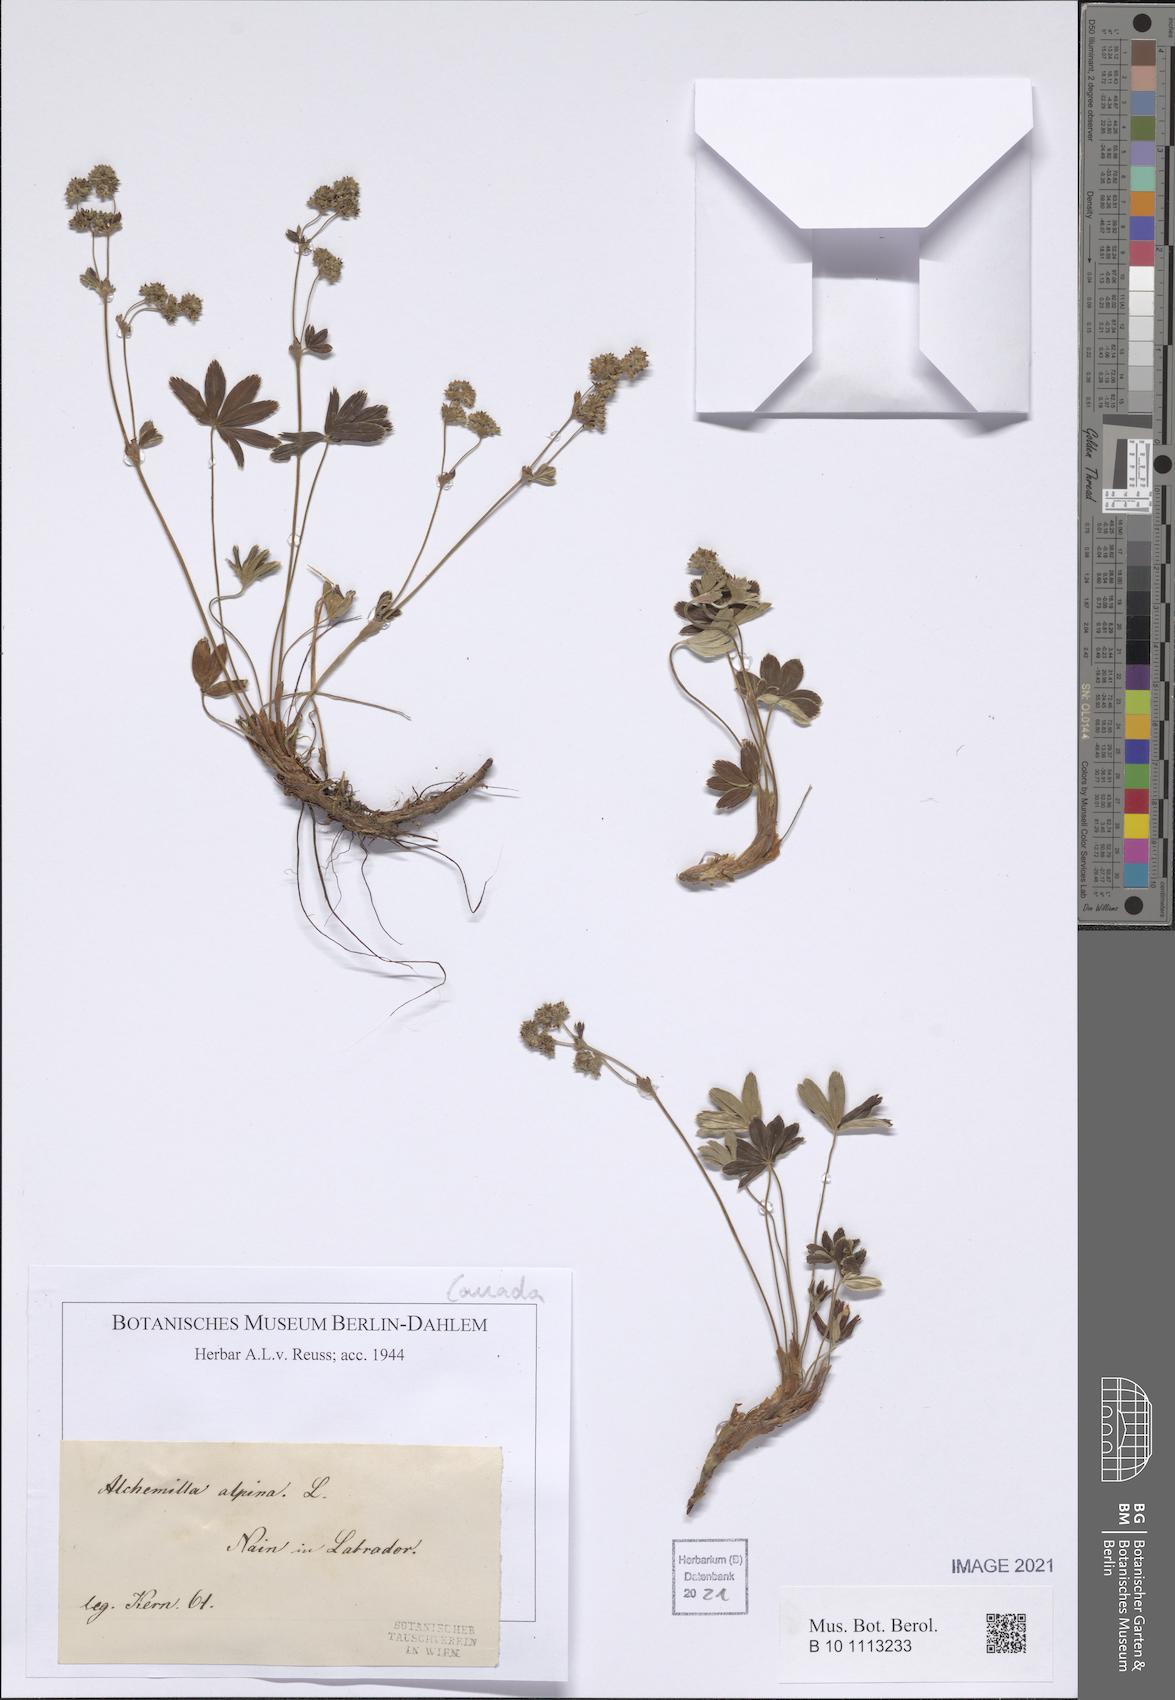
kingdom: Plantae
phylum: Tracheophyta
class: Magnoliopsida
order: Rosales
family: Rosaceae
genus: Alchemilla
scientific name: Alchemilla alpina
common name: Alpine lady's-mantle
